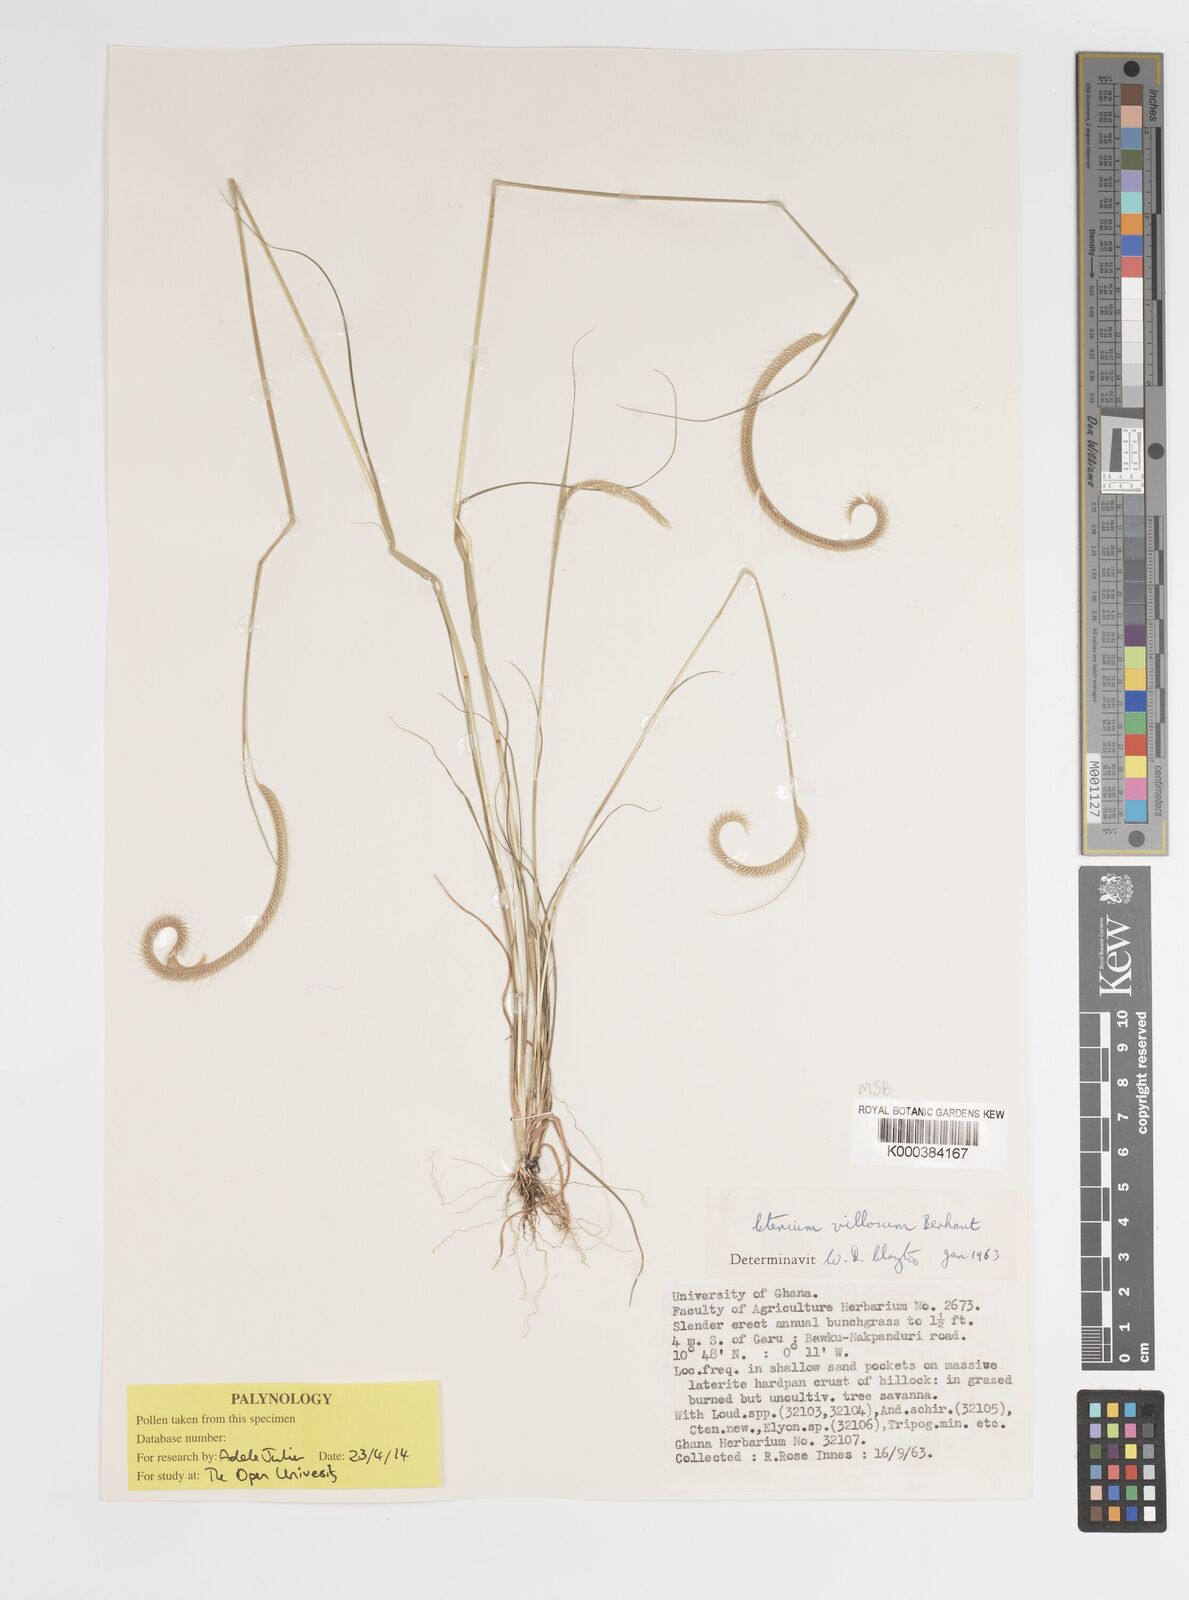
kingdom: Plantae
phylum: Tracheophyta
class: Liliopsida
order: Poales
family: Poaceae
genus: Ctenium
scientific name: Ctenium villosum
